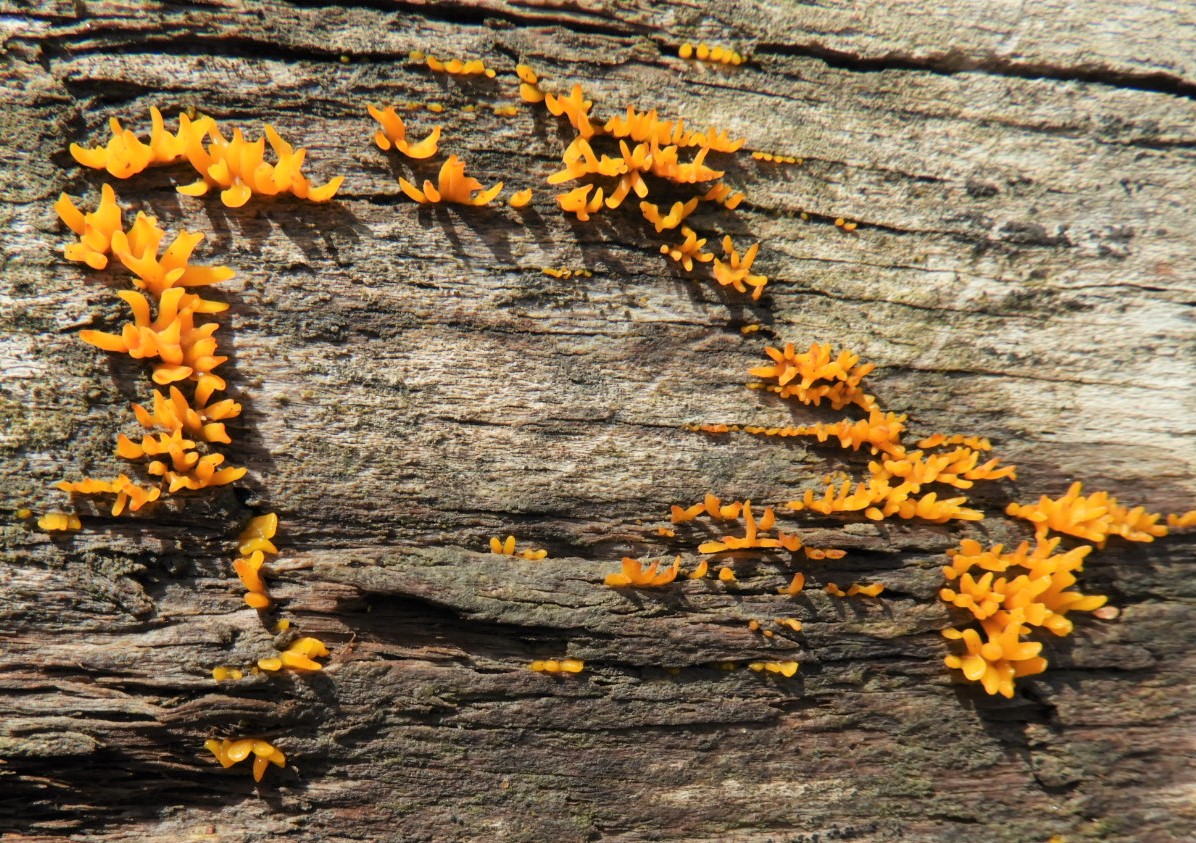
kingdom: Fungi
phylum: Basidiomycota
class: Dacrymycetes
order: Dacrymycetales
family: Dacrymycetaceae
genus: Calocera
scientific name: Calocera cornea
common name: liden guldgaffel
